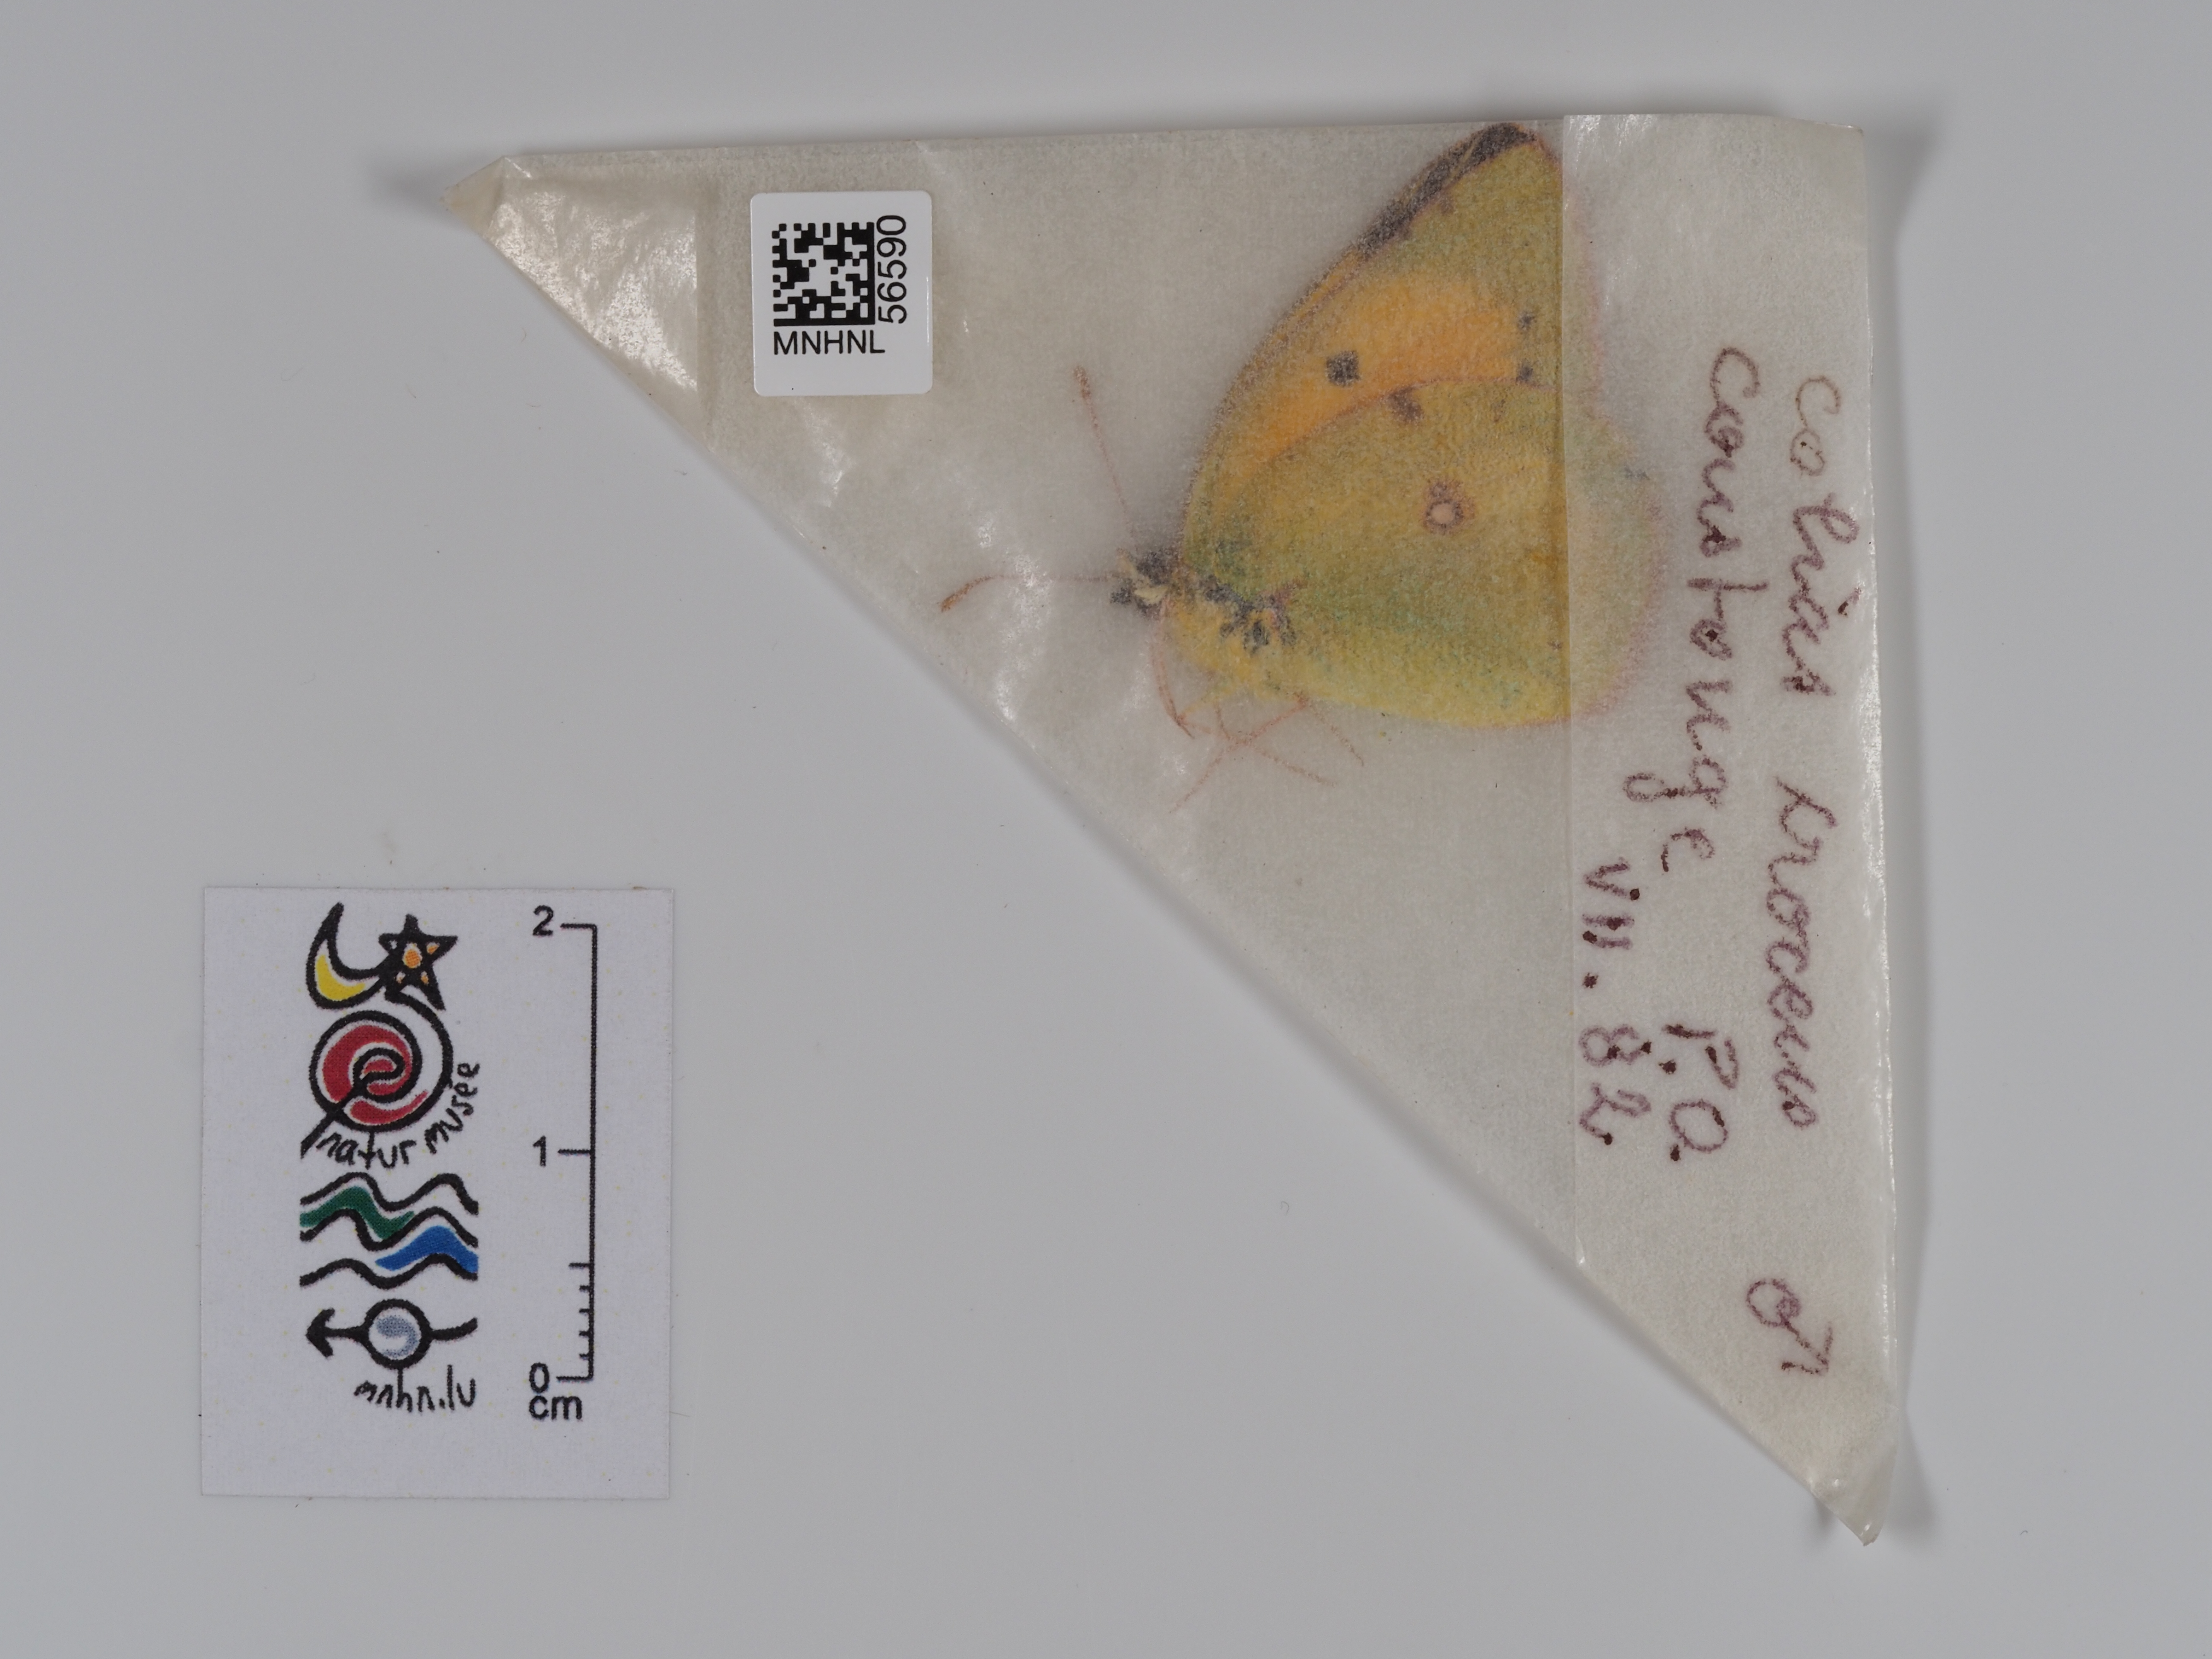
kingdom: Animalia
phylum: Arthropoda
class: Insecta
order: Lepidoptera
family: Pieridae
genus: Colias
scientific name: Colias croceus
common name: Clouded yellow
